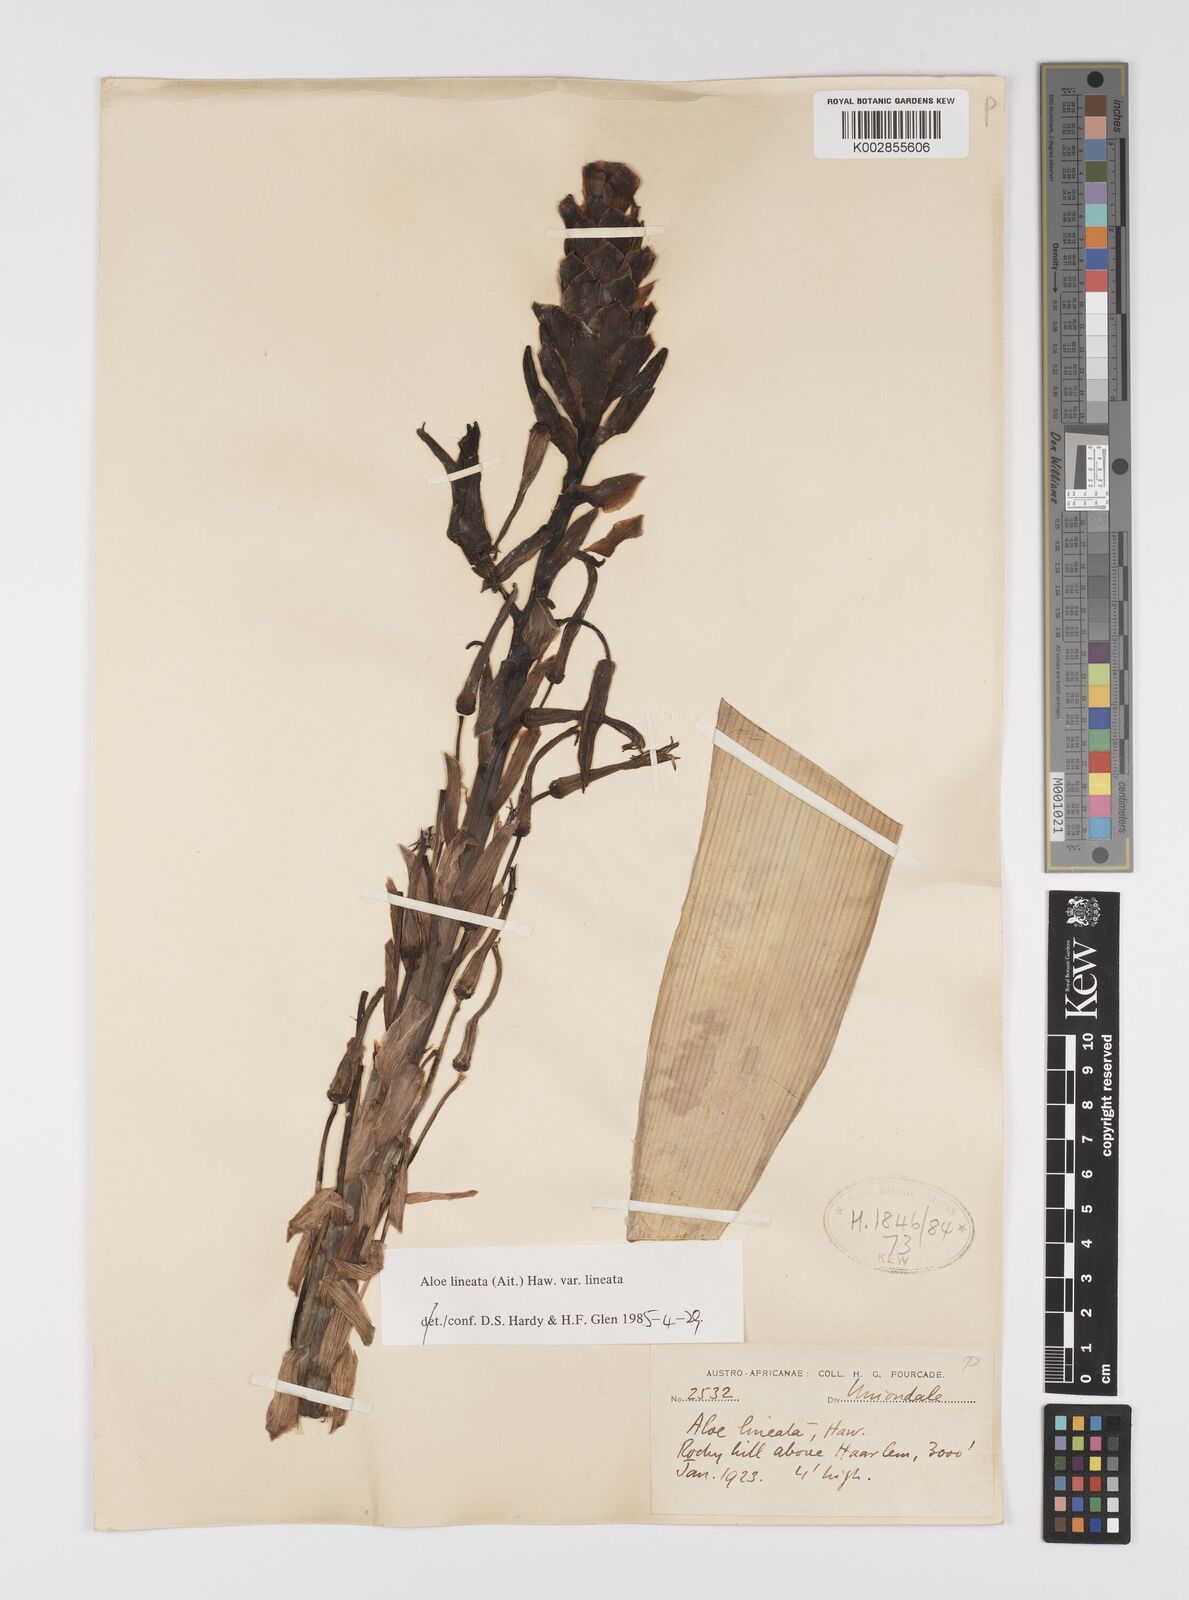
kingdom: Plantae
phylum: Tracheophyta
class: Liliopsida
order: Asparagales
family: Asphodelaceae
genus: Aloe
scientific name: Aloe lineata
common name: Lined red-spined aloe
